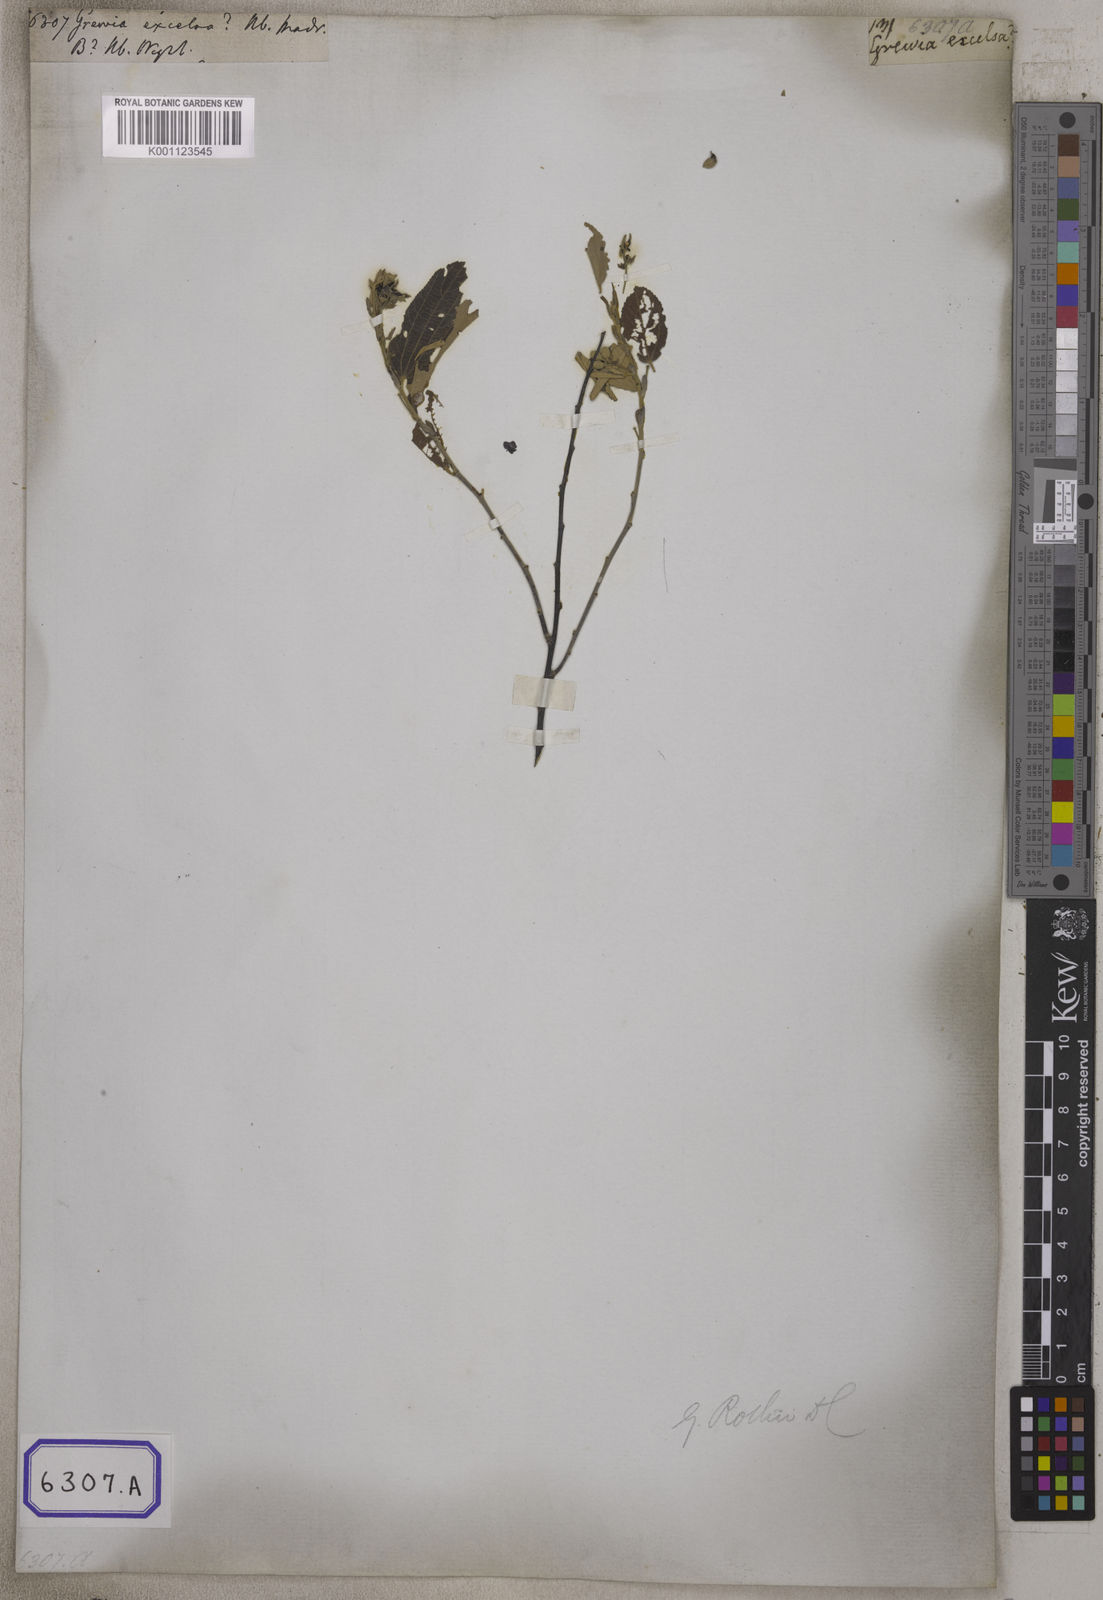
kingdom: Plantae
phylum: Tracheophyta
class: Magnoliopsida
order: Malvales
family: Malvaceae
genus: Grewia
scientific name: Grewia excelsa
